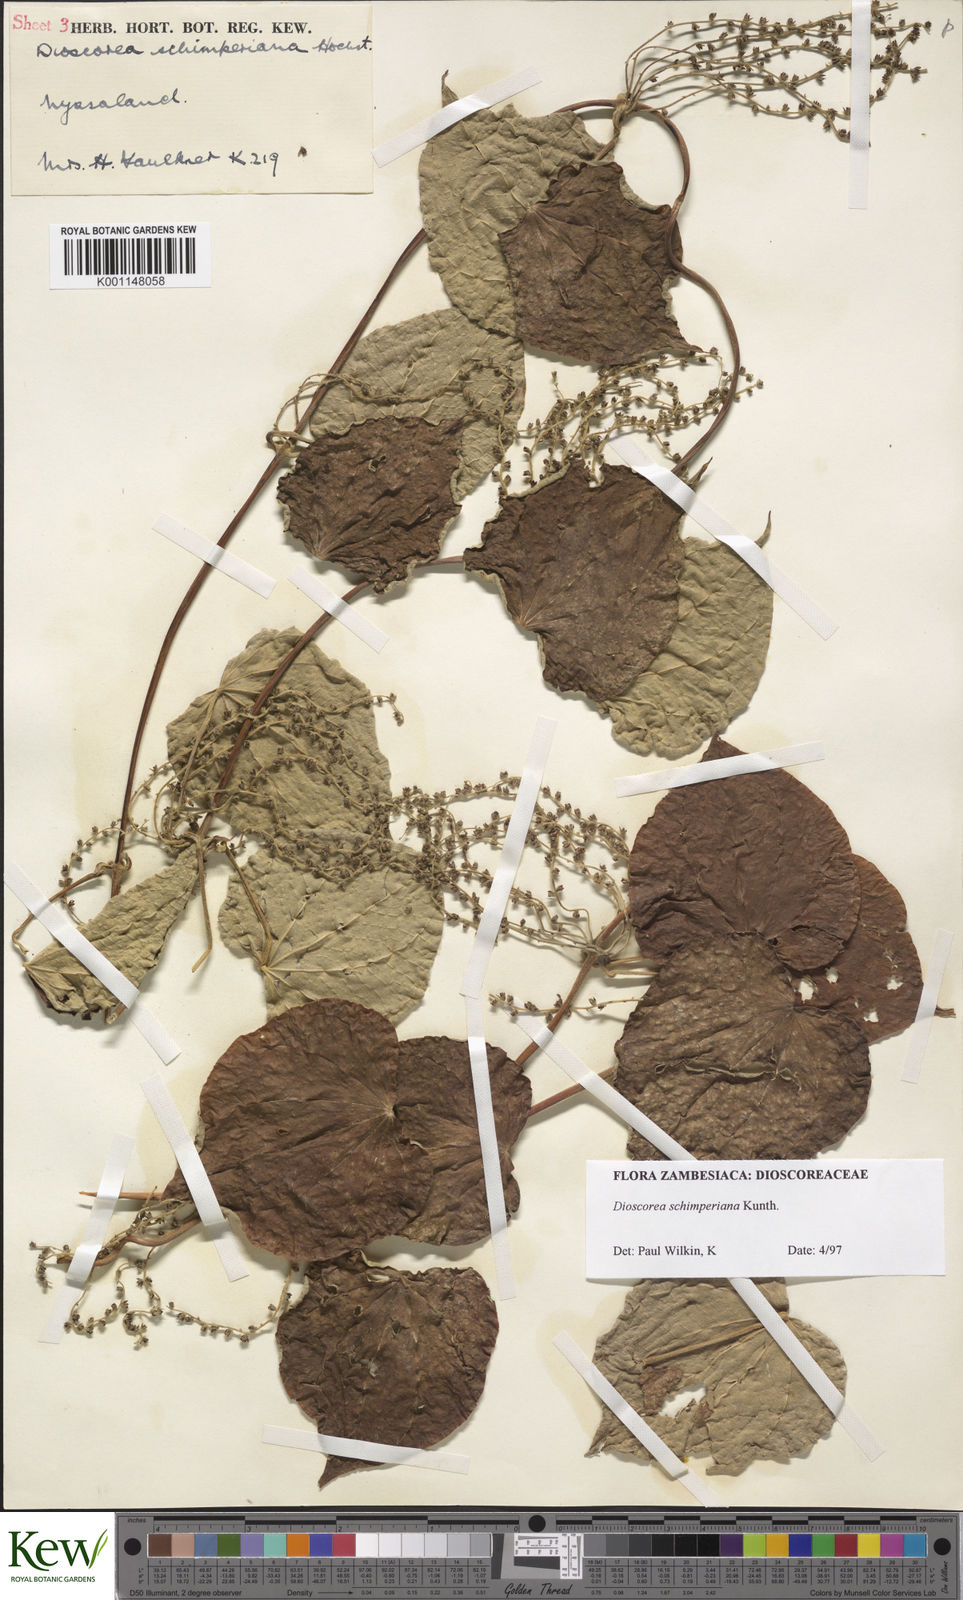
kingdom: Plantae
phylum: Tracheophyta
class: Liliopsida
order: Dioscoreales
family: Dioscoreaceae
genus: Dioscorea
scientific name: Dioscorea schimperiana
